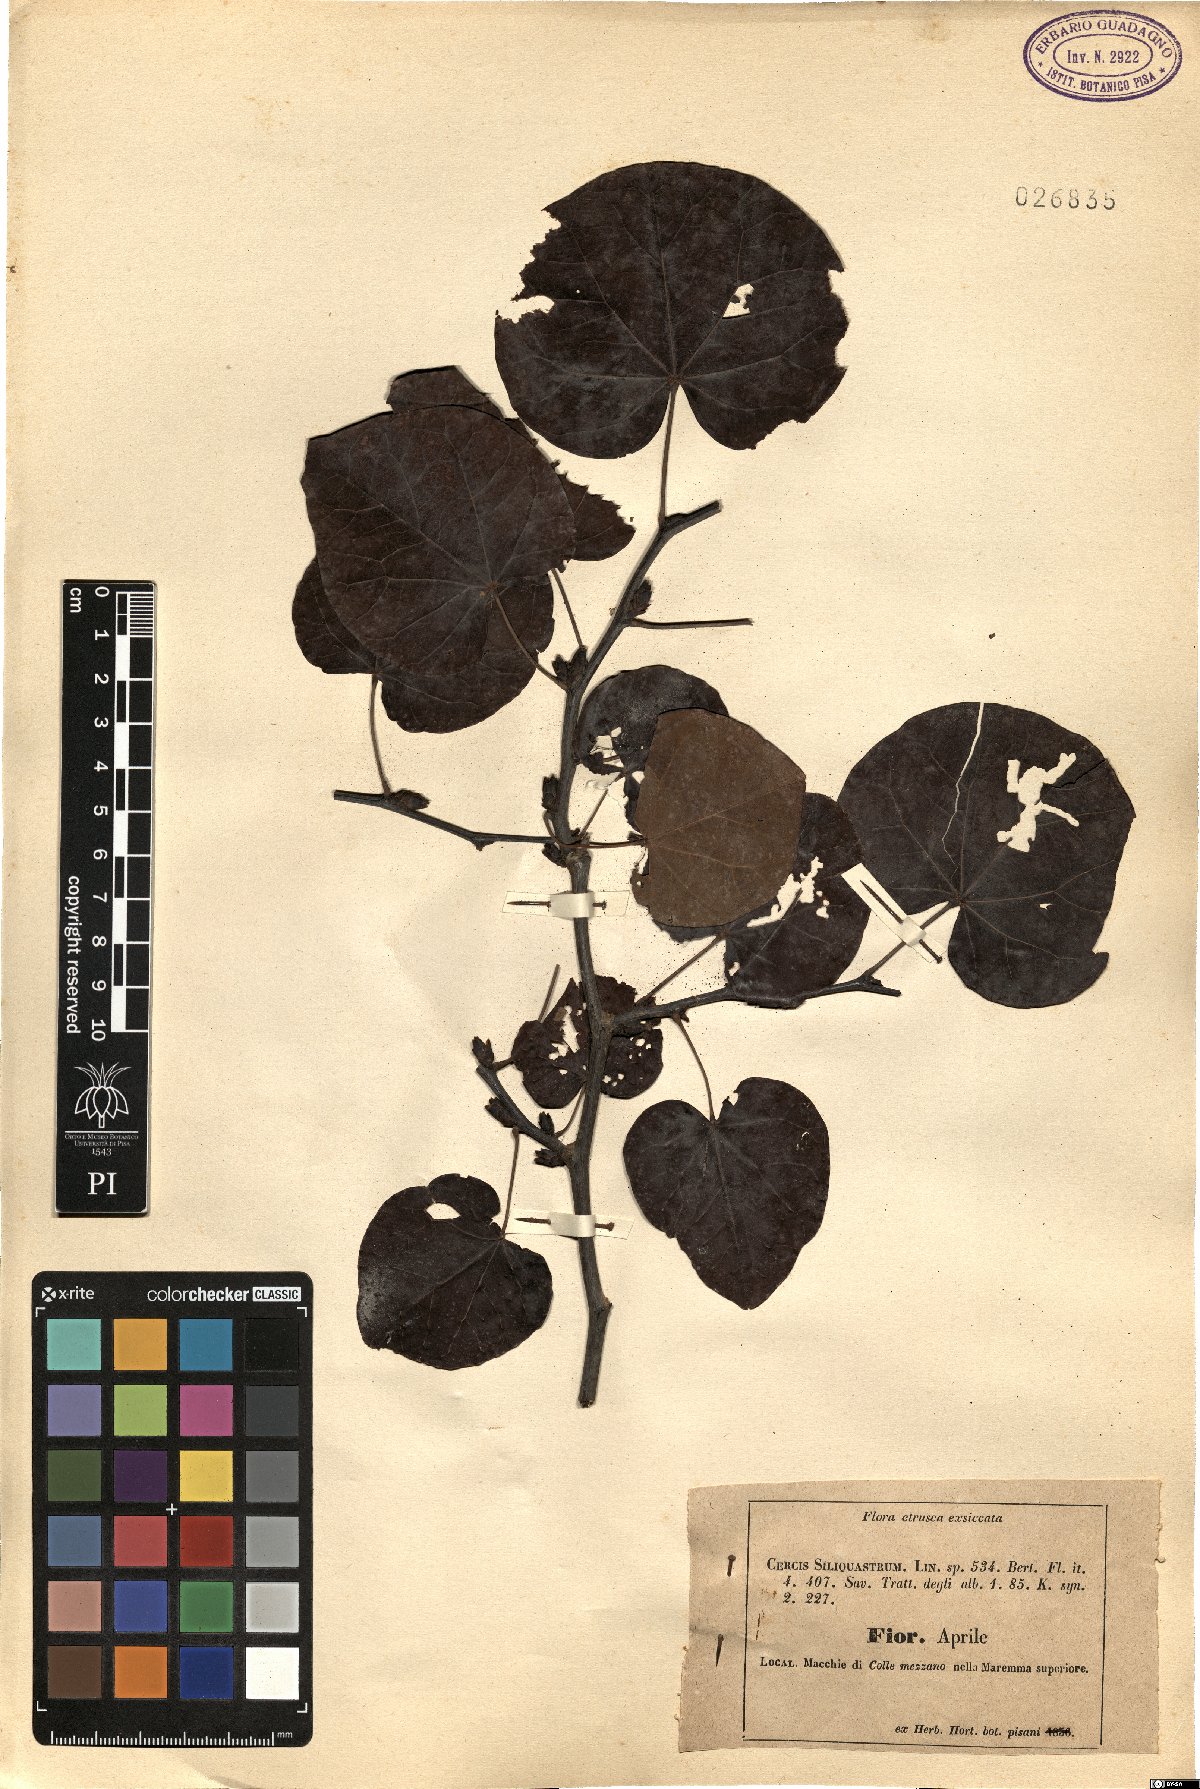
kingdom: Plantae
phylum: Tracheophyta
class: Magnoliopsida
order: Fabales
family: Fabaceae
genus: Cercis
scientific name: Cercis siliquastrum
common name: Judas tree
